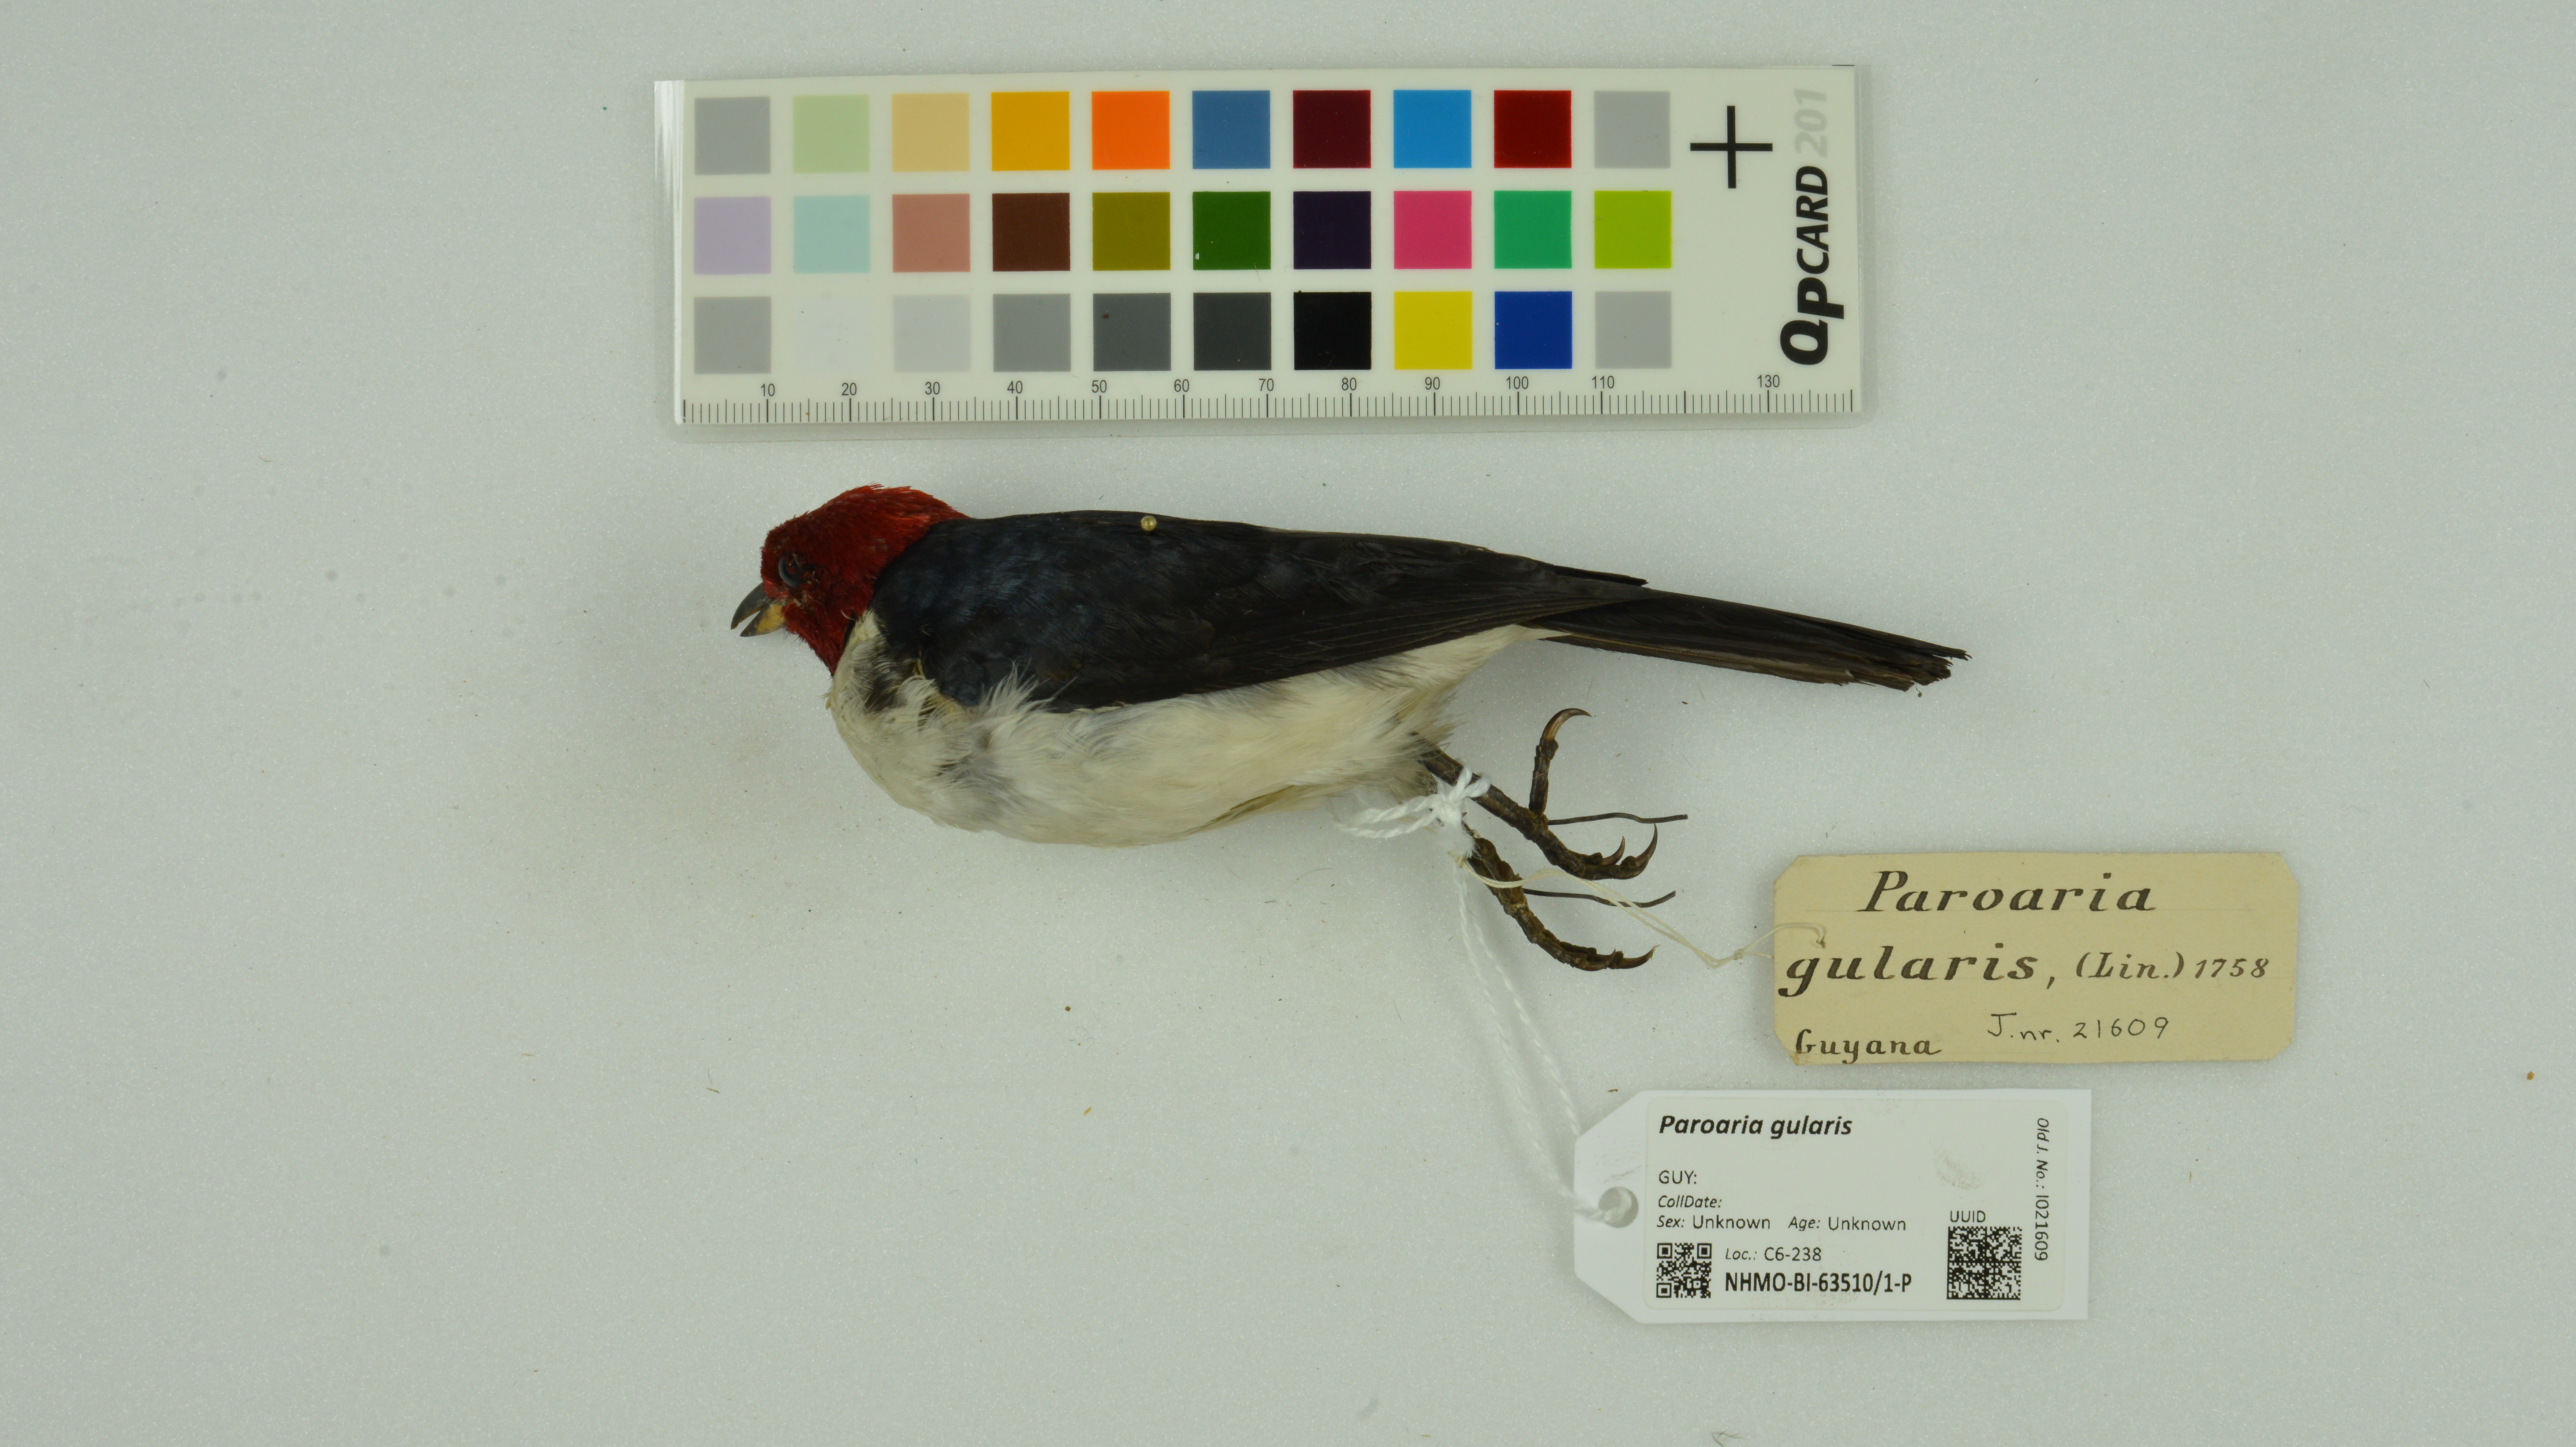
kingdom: Animalia
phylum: Chordata
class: Aves
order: Passeriformes
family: Thraupidae
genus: Paroaria
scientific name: Paroaria gularis
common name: Red-capped cardinal
